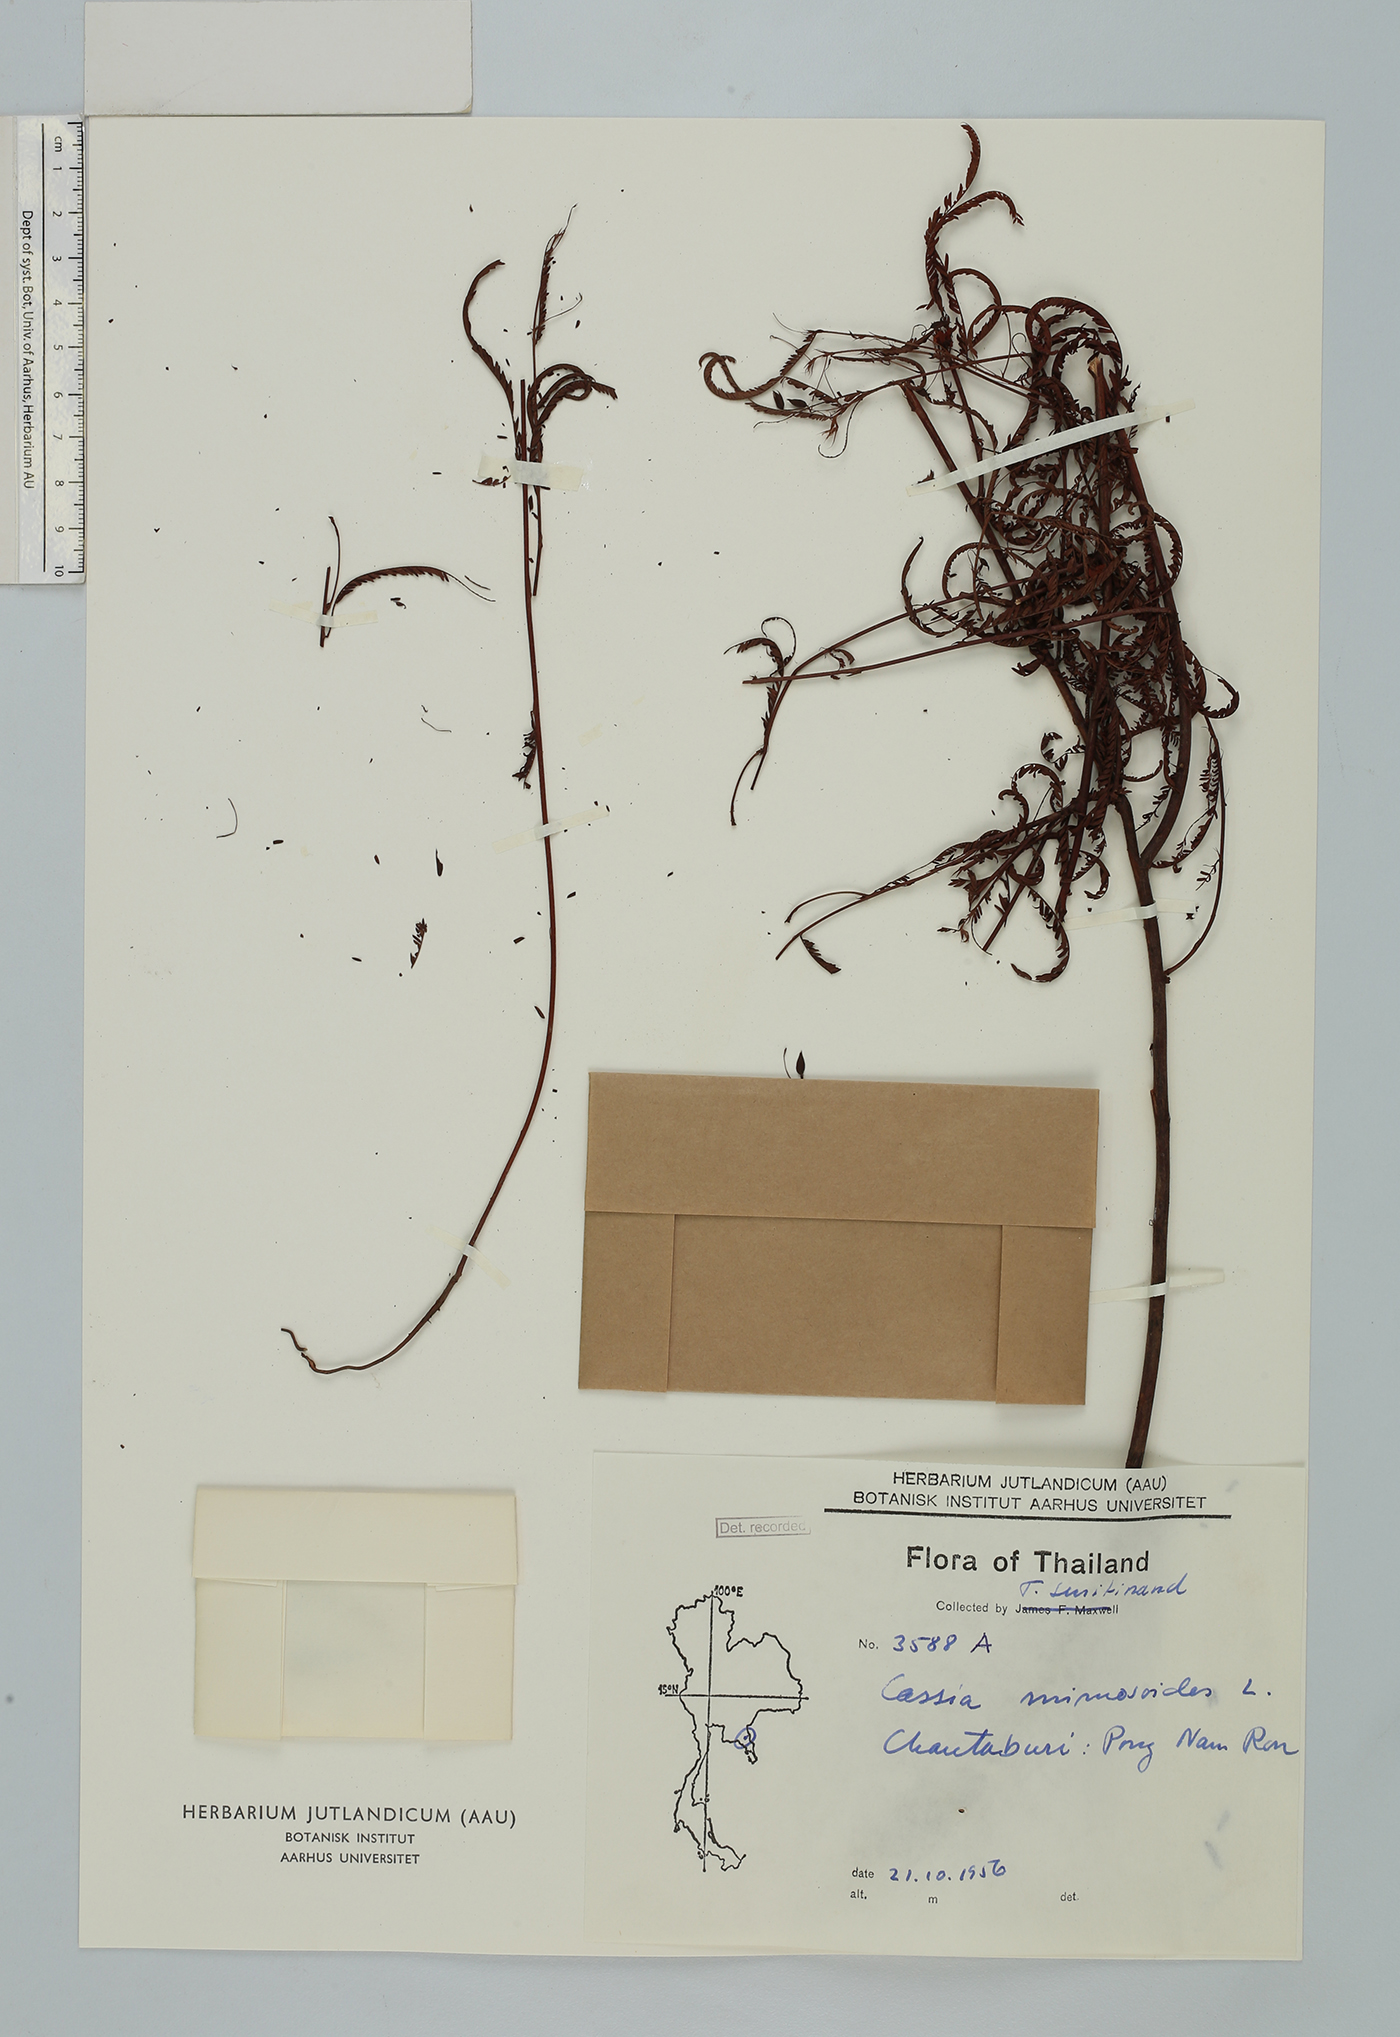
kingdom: Plantae
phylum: Tracheophyta
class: Magnoliopsida
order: Fabales
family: Fabaceae
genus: Chamaecrista
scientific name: Chamaecrista mimosoides
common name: Fish-bone cassia
